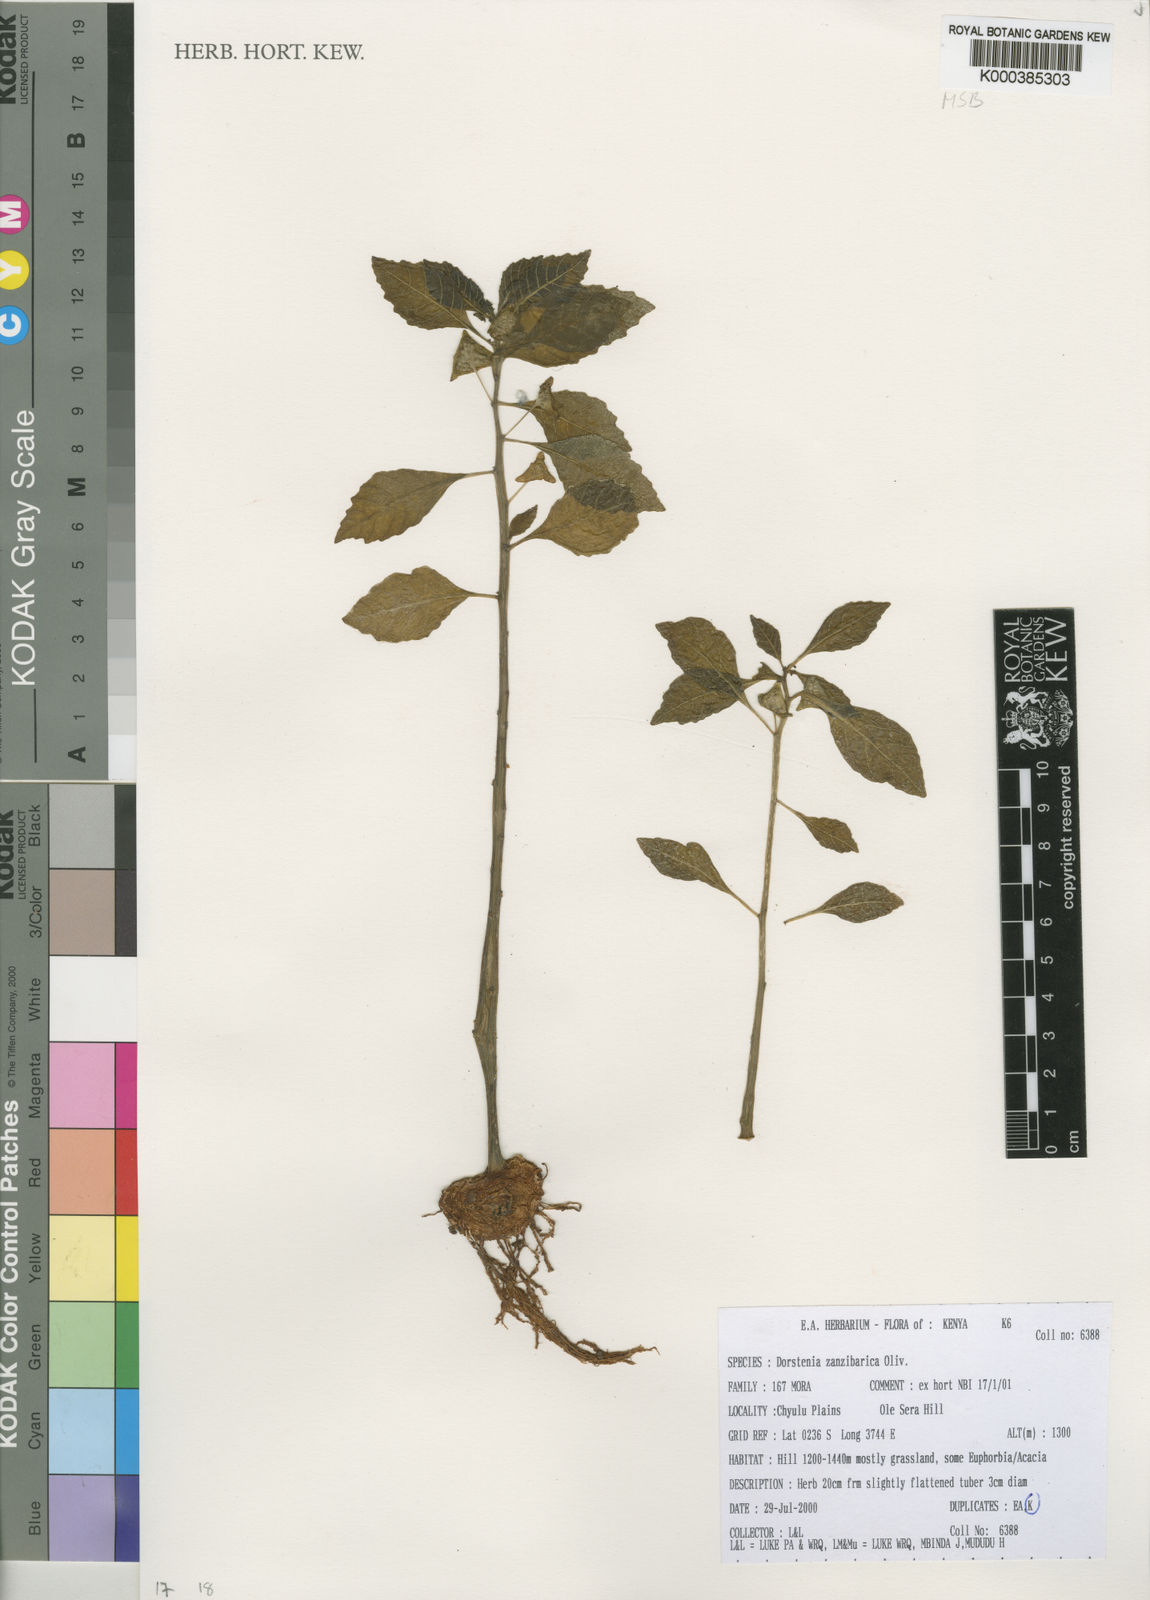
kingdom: Plantae
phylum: Tracheophyta
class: Magnoliopsida
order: Rosales
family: Moraceae
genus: Dorstenia
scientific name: Dorstenia zanzibarica
